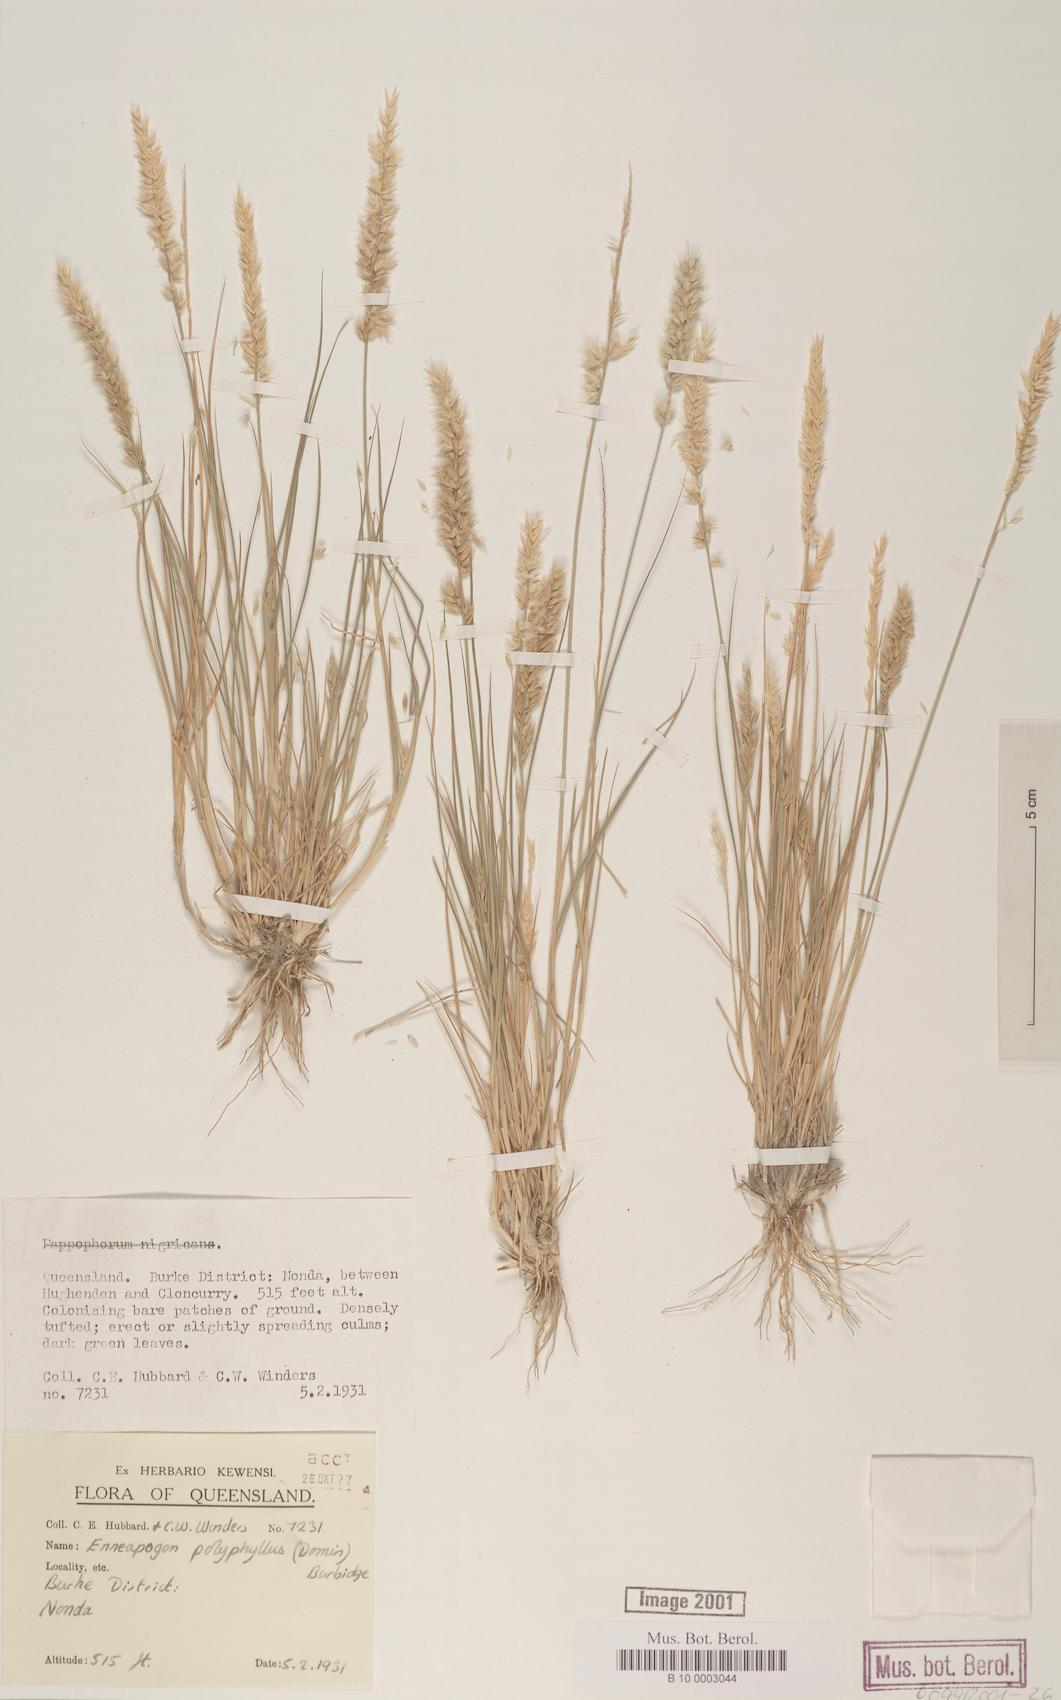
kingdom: Plantae
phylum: Tracheophyta
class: Liliopsida
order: Poales
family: Poaceae
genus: Enneapogon
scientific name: Enneapogon polyphyllus
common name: Leafy nineawn
